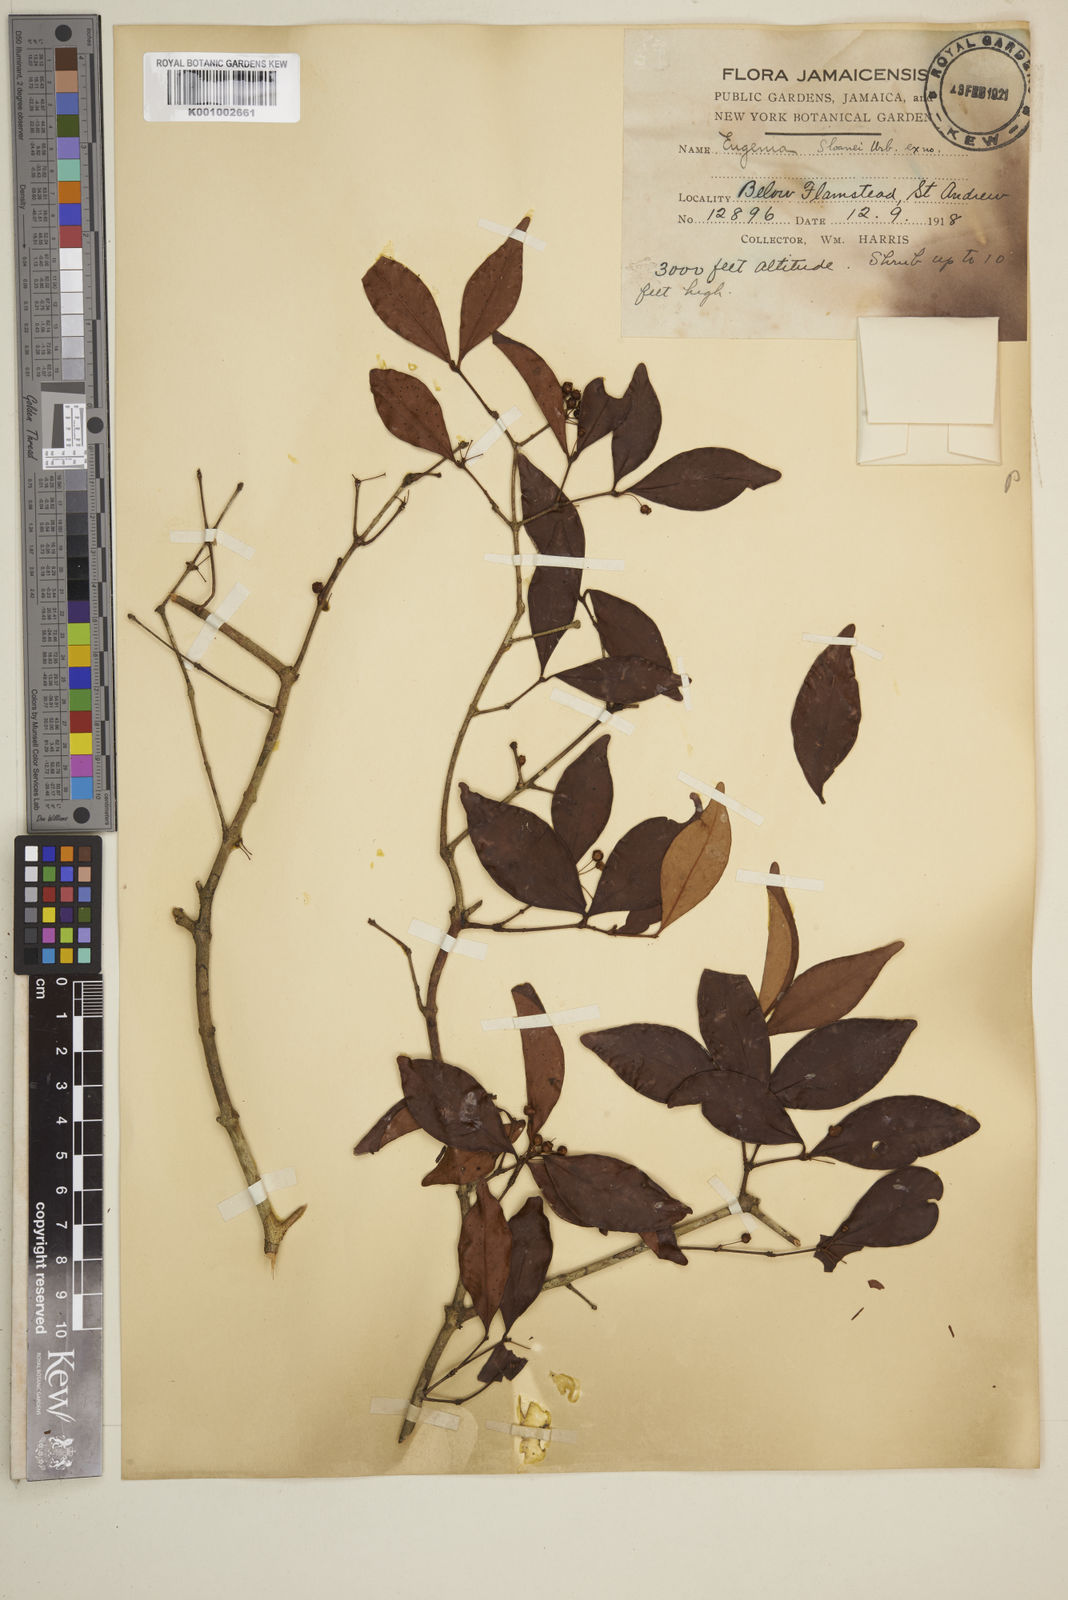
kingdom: Plantae
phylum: Tracheophyta
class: Magnoliopsida
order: Myrtales
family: Myrtaceae
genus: Eugenia
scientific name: Eugenia
